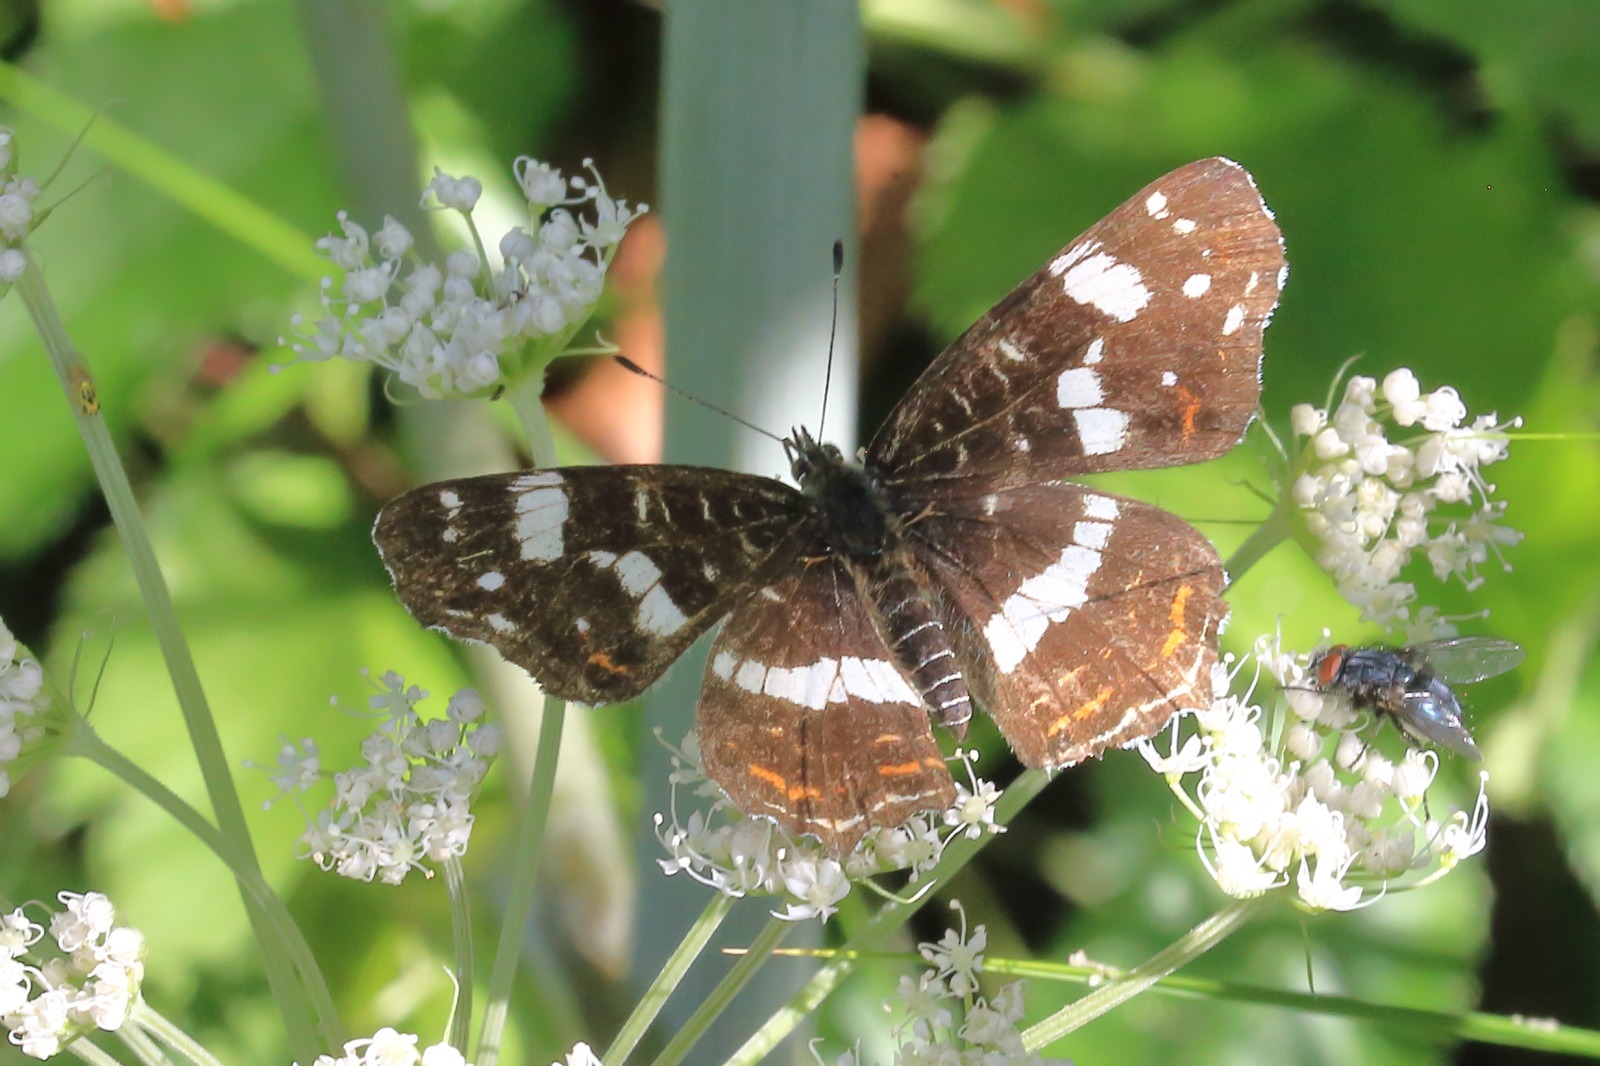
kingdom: Animalia
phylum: Arthropoda
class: Insecta
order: Lepidoptera
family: Nymphalidae
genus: Araschnia
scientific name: Araschnia levana
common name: Nældesommerfugl
